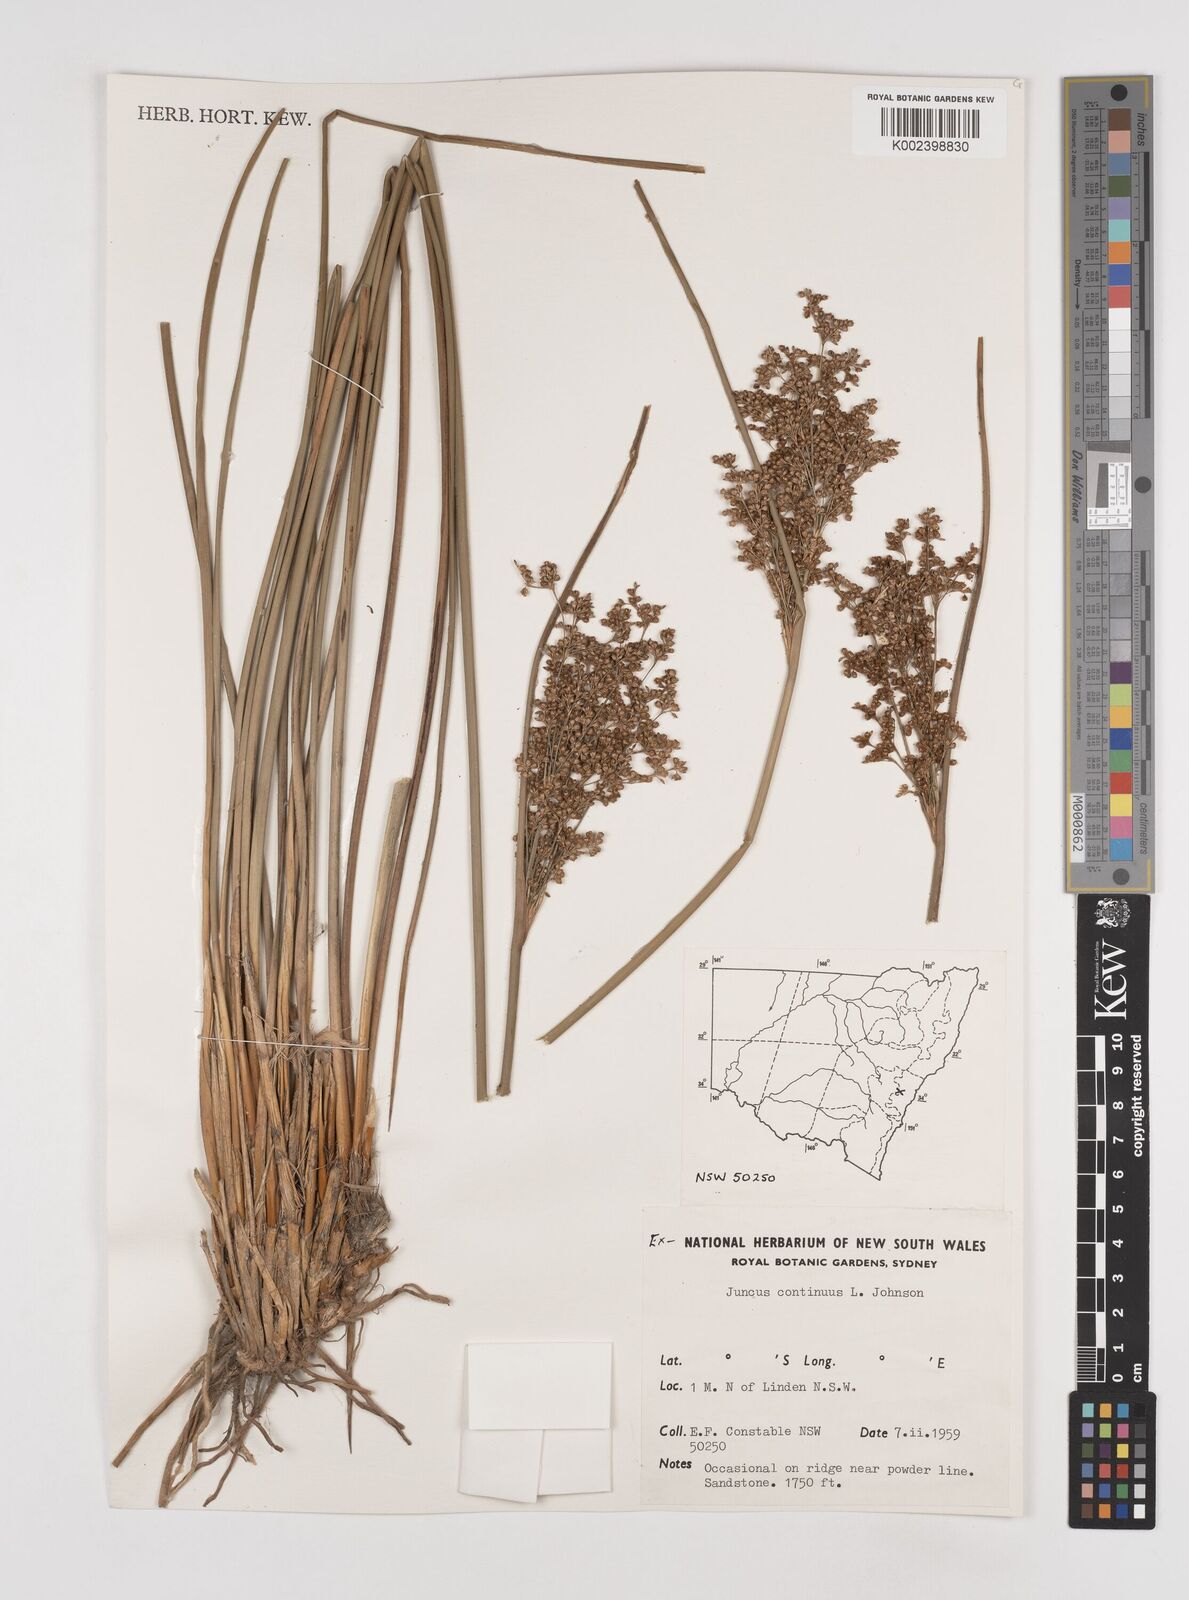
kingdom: Plantae
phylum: Tracheophyta
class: Liliopsida
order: Poales
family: Juncaceae
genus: Juncus
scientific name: Juncus continuus
